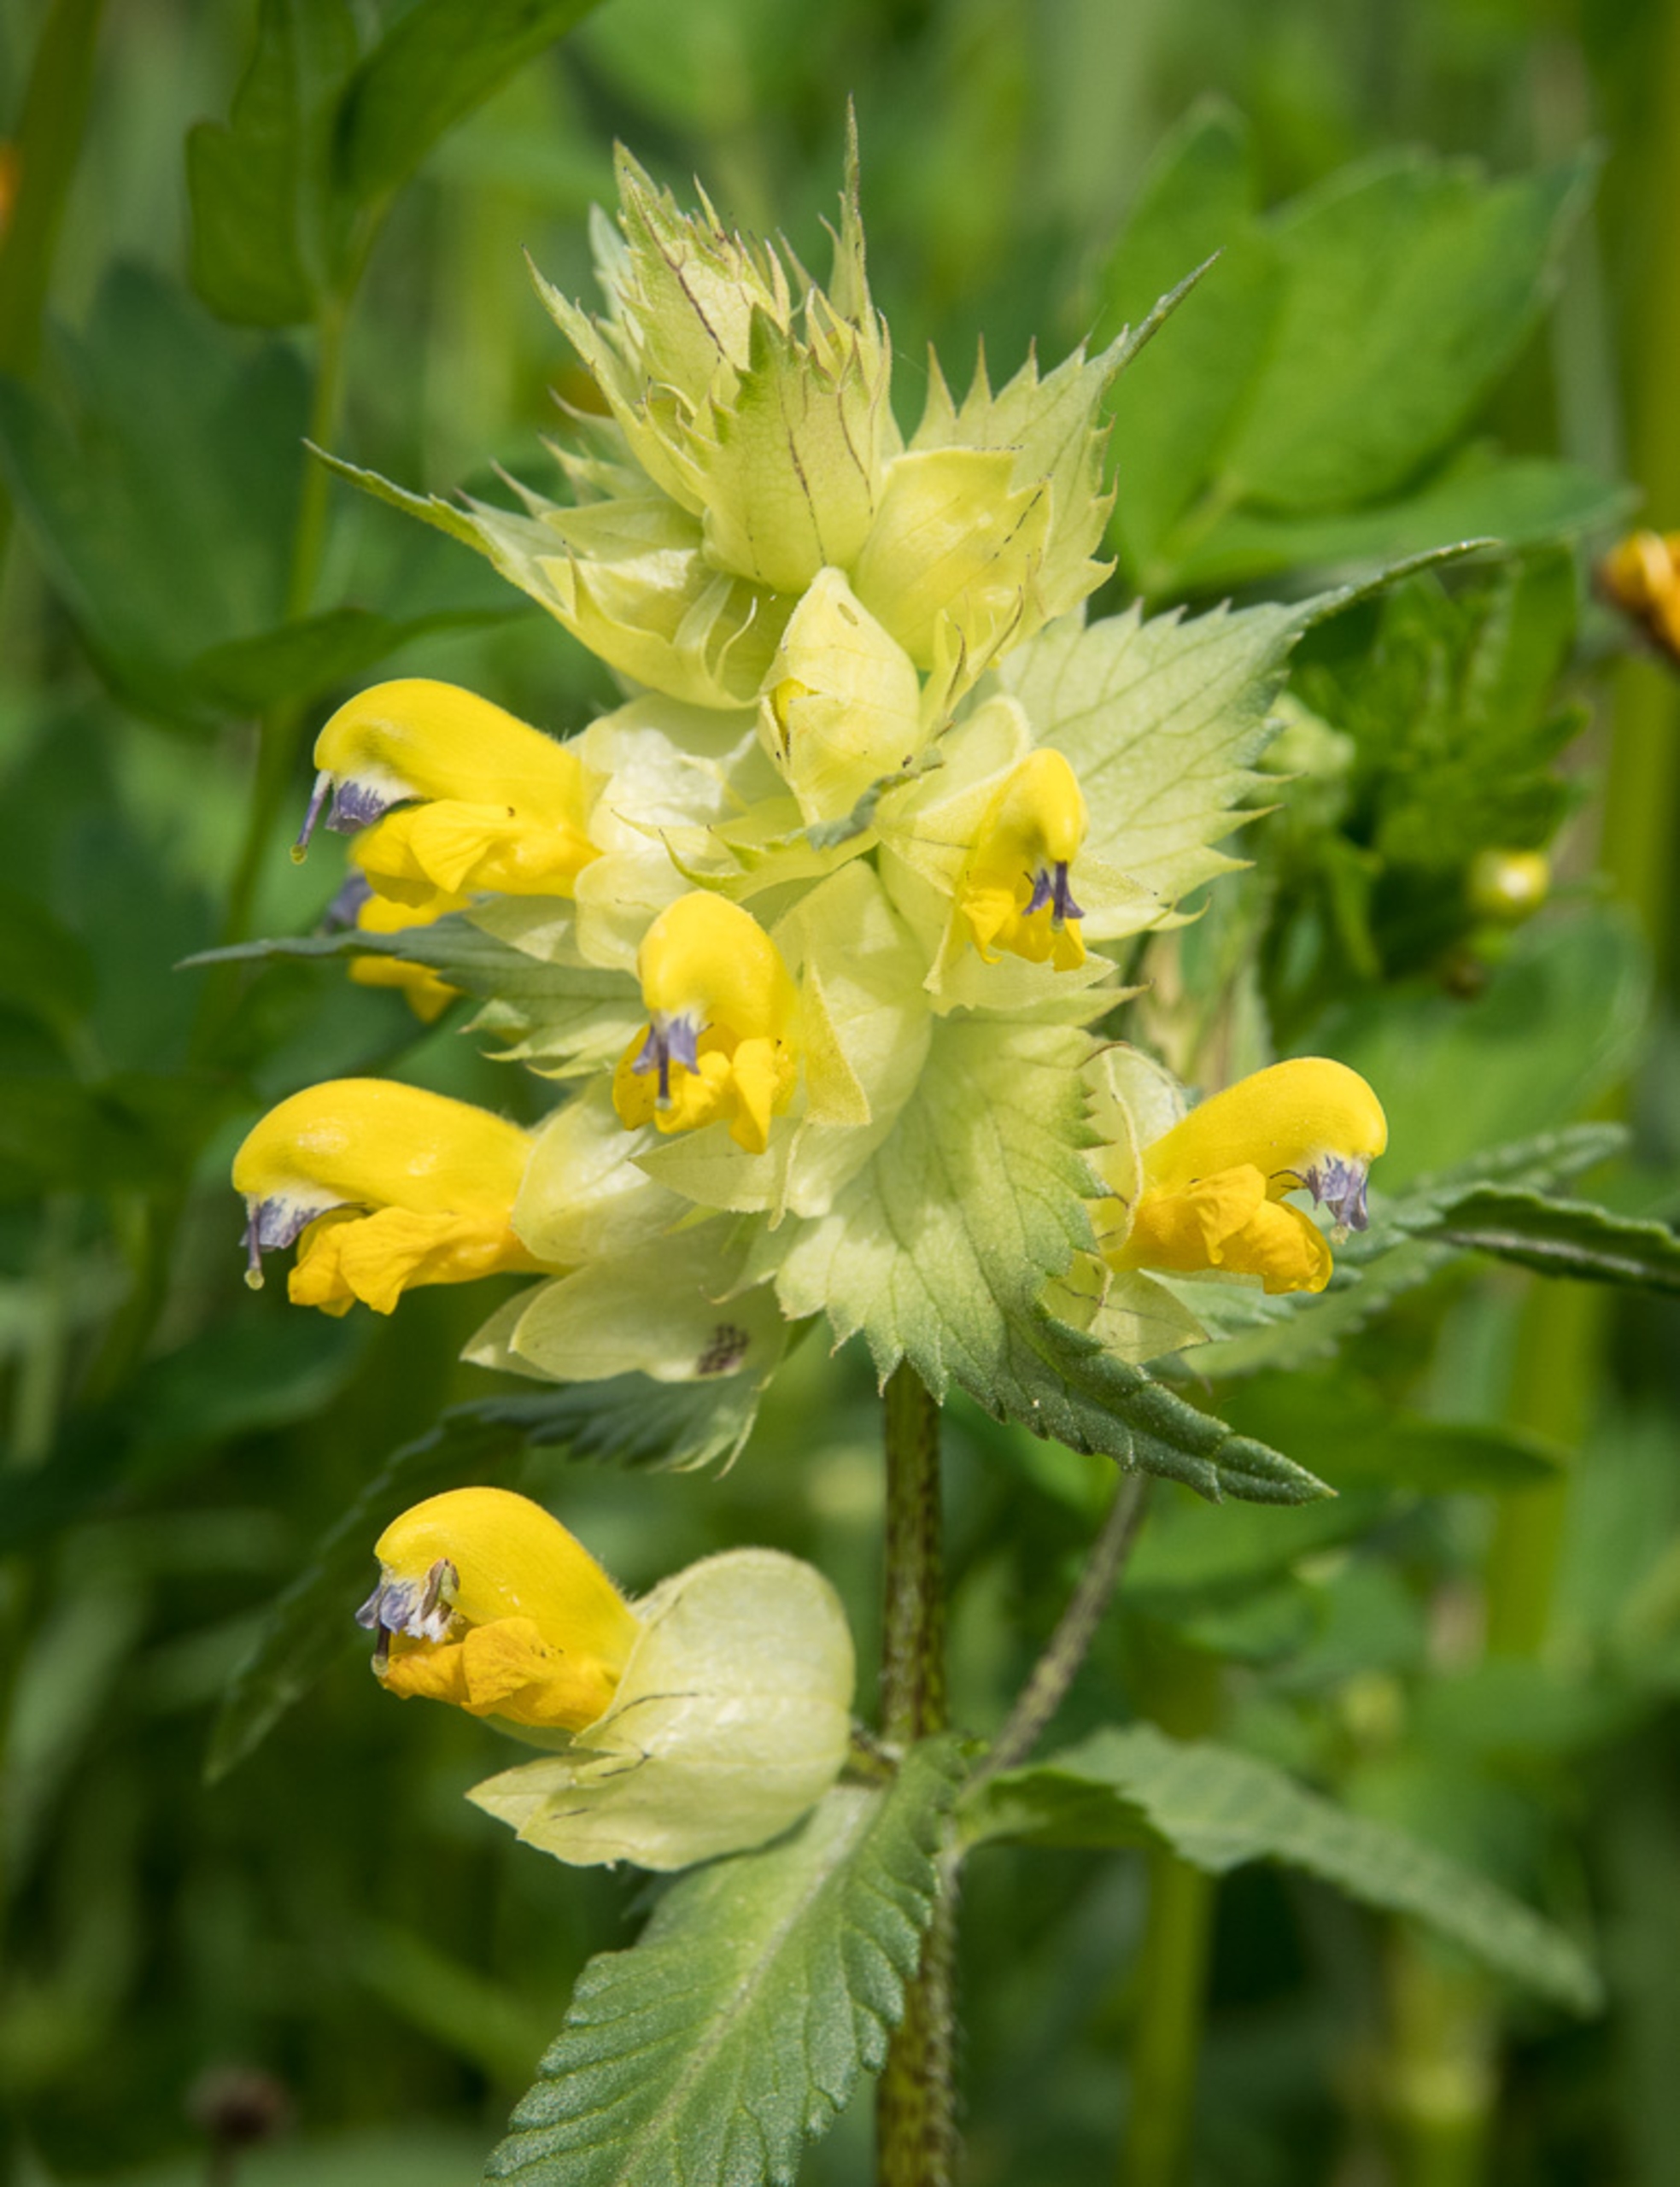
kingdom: Plantae
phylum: Tracheophyta
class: Magnoliopsida
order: Lamiales
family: Orobanchaceae
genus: Rhinanthus
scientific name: Rhinanthus
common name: Stor skjaller
